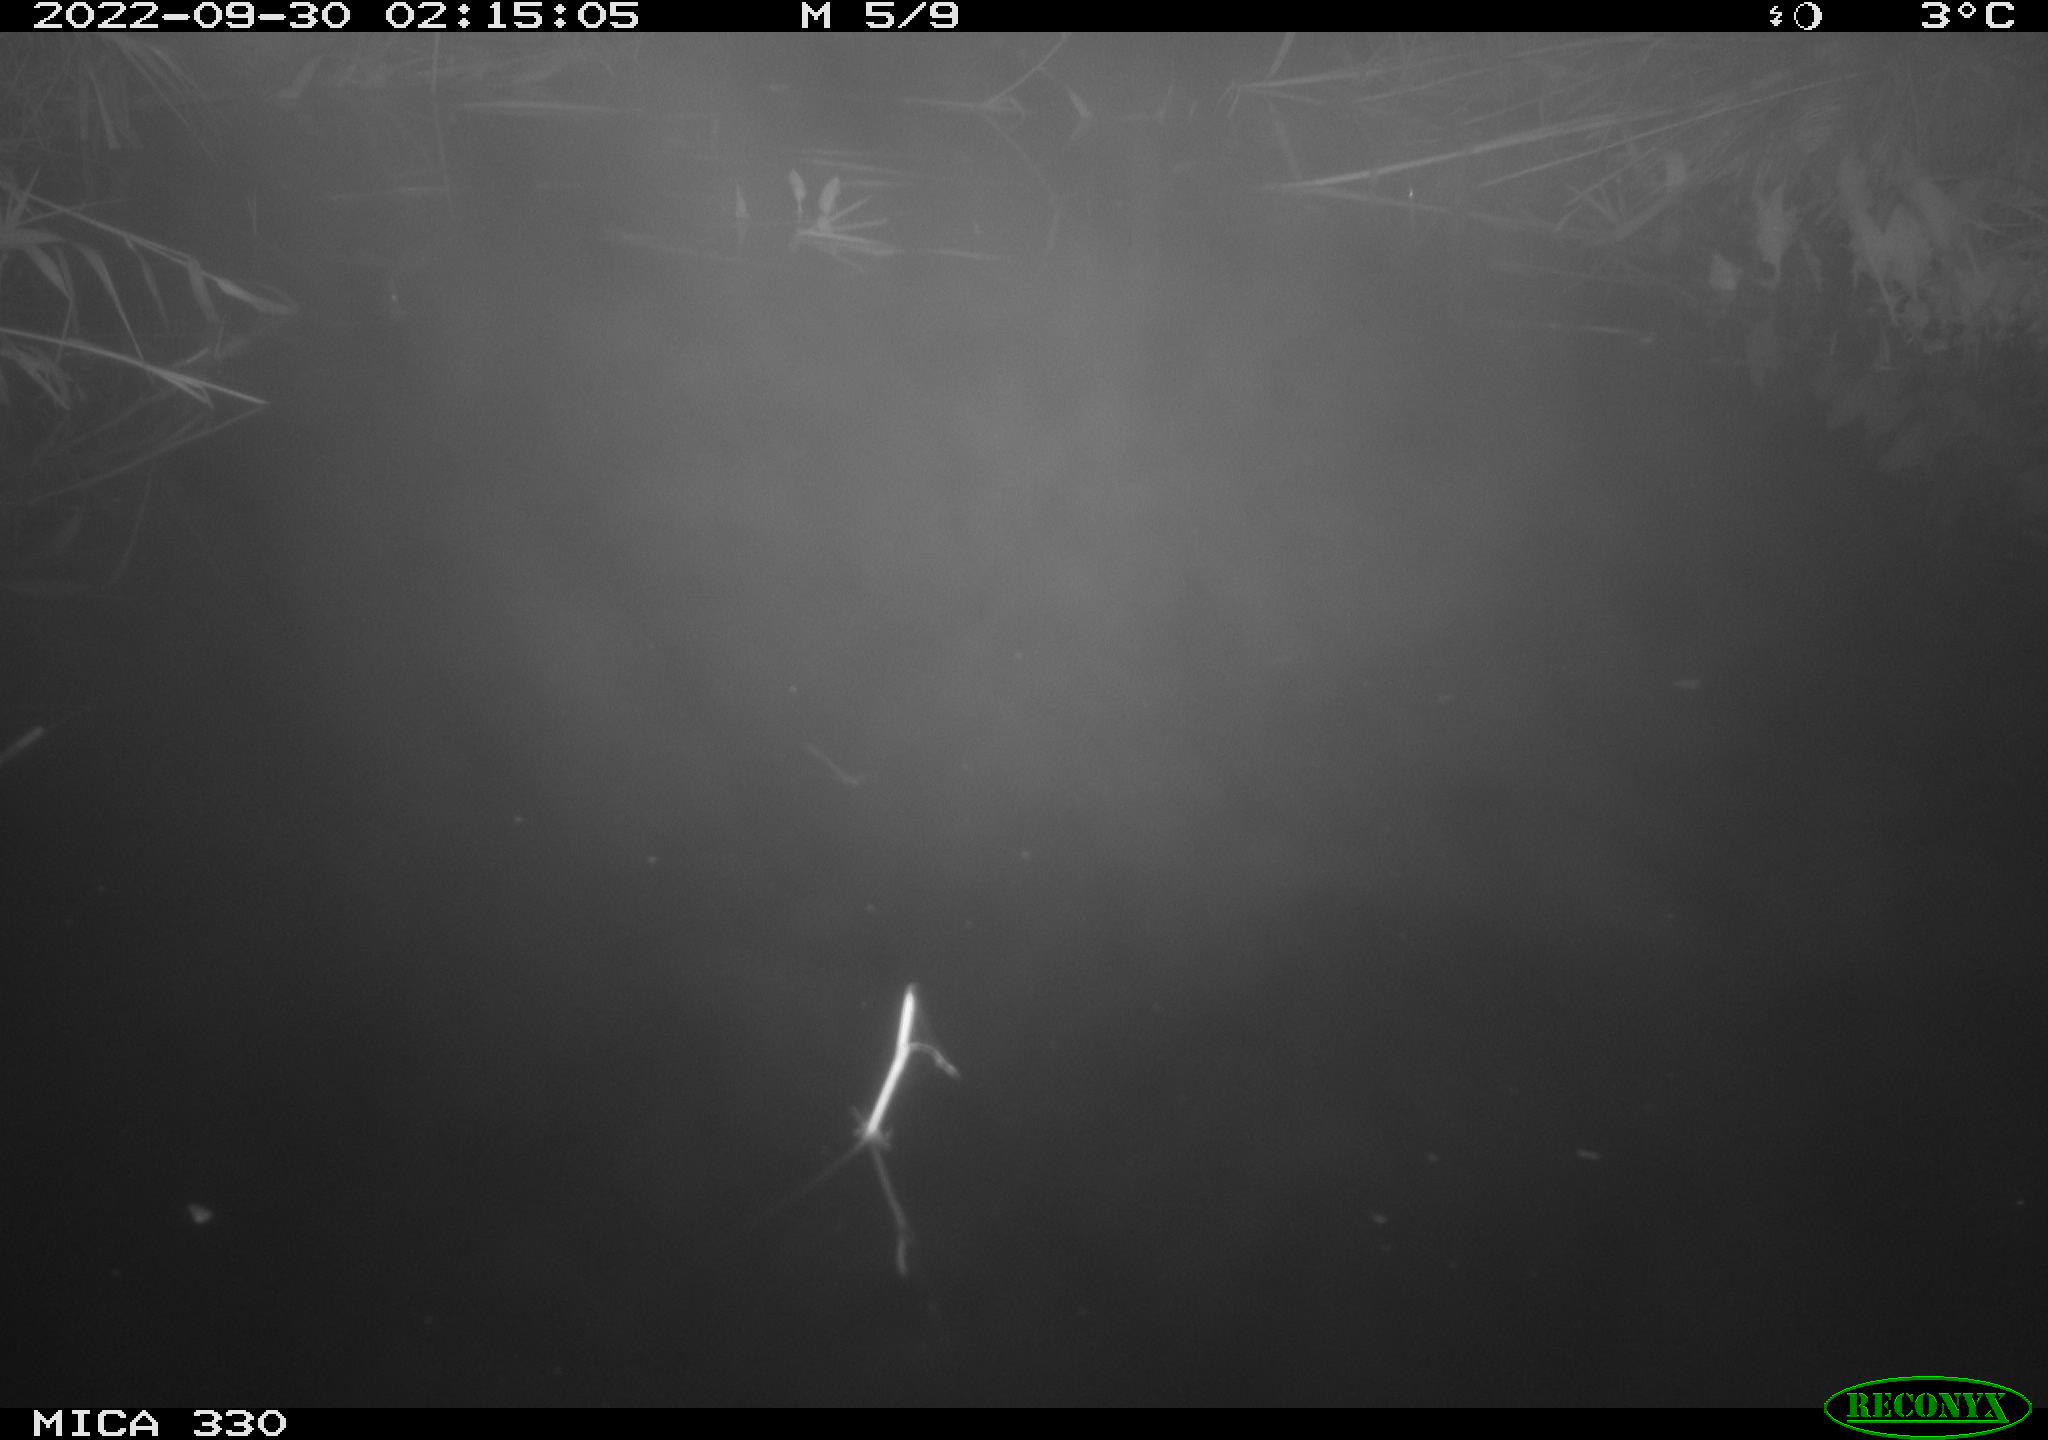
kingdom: Animalia
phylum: Chordata
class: Mammalia
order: Rodentia
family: Muridae
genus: Rattus
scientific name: Rattus norvegicus
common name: Brown rat
